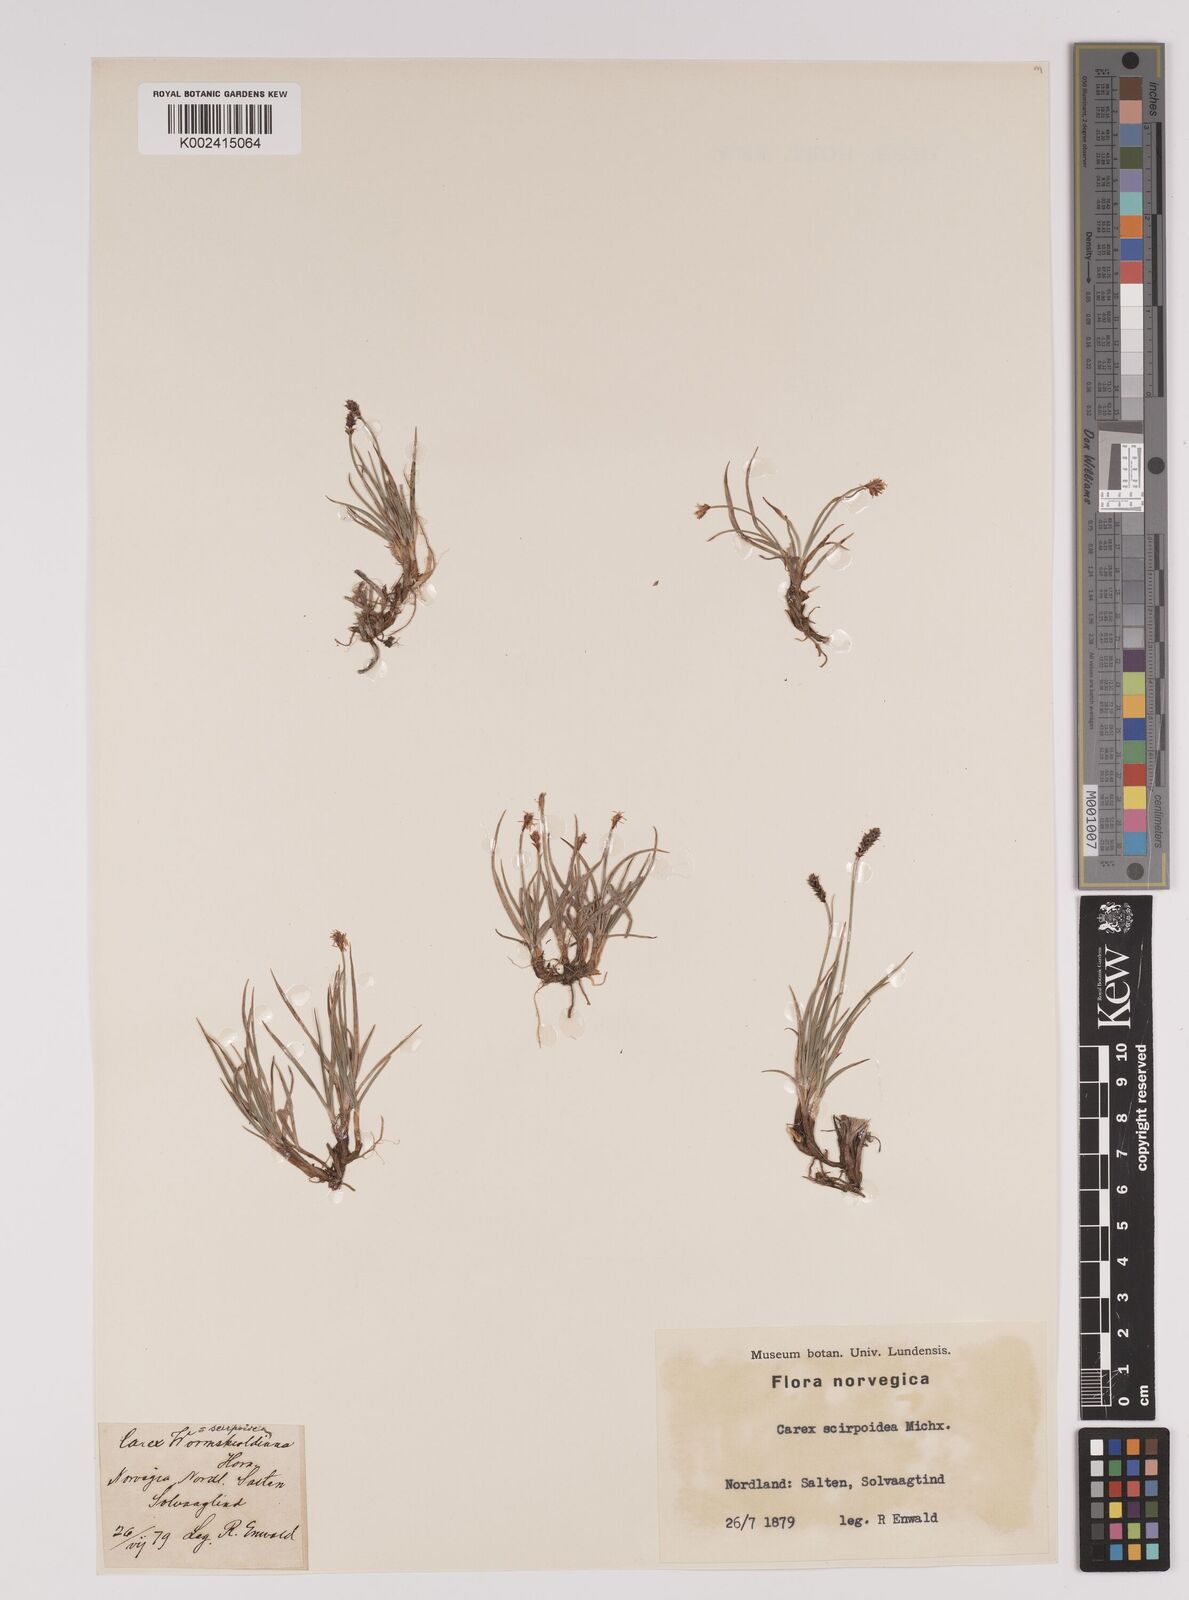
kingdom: Plantae
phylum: Tracheophyta
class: Liliopsida
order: Poales
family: Cyperaceae
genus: Carex
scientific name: Carex
